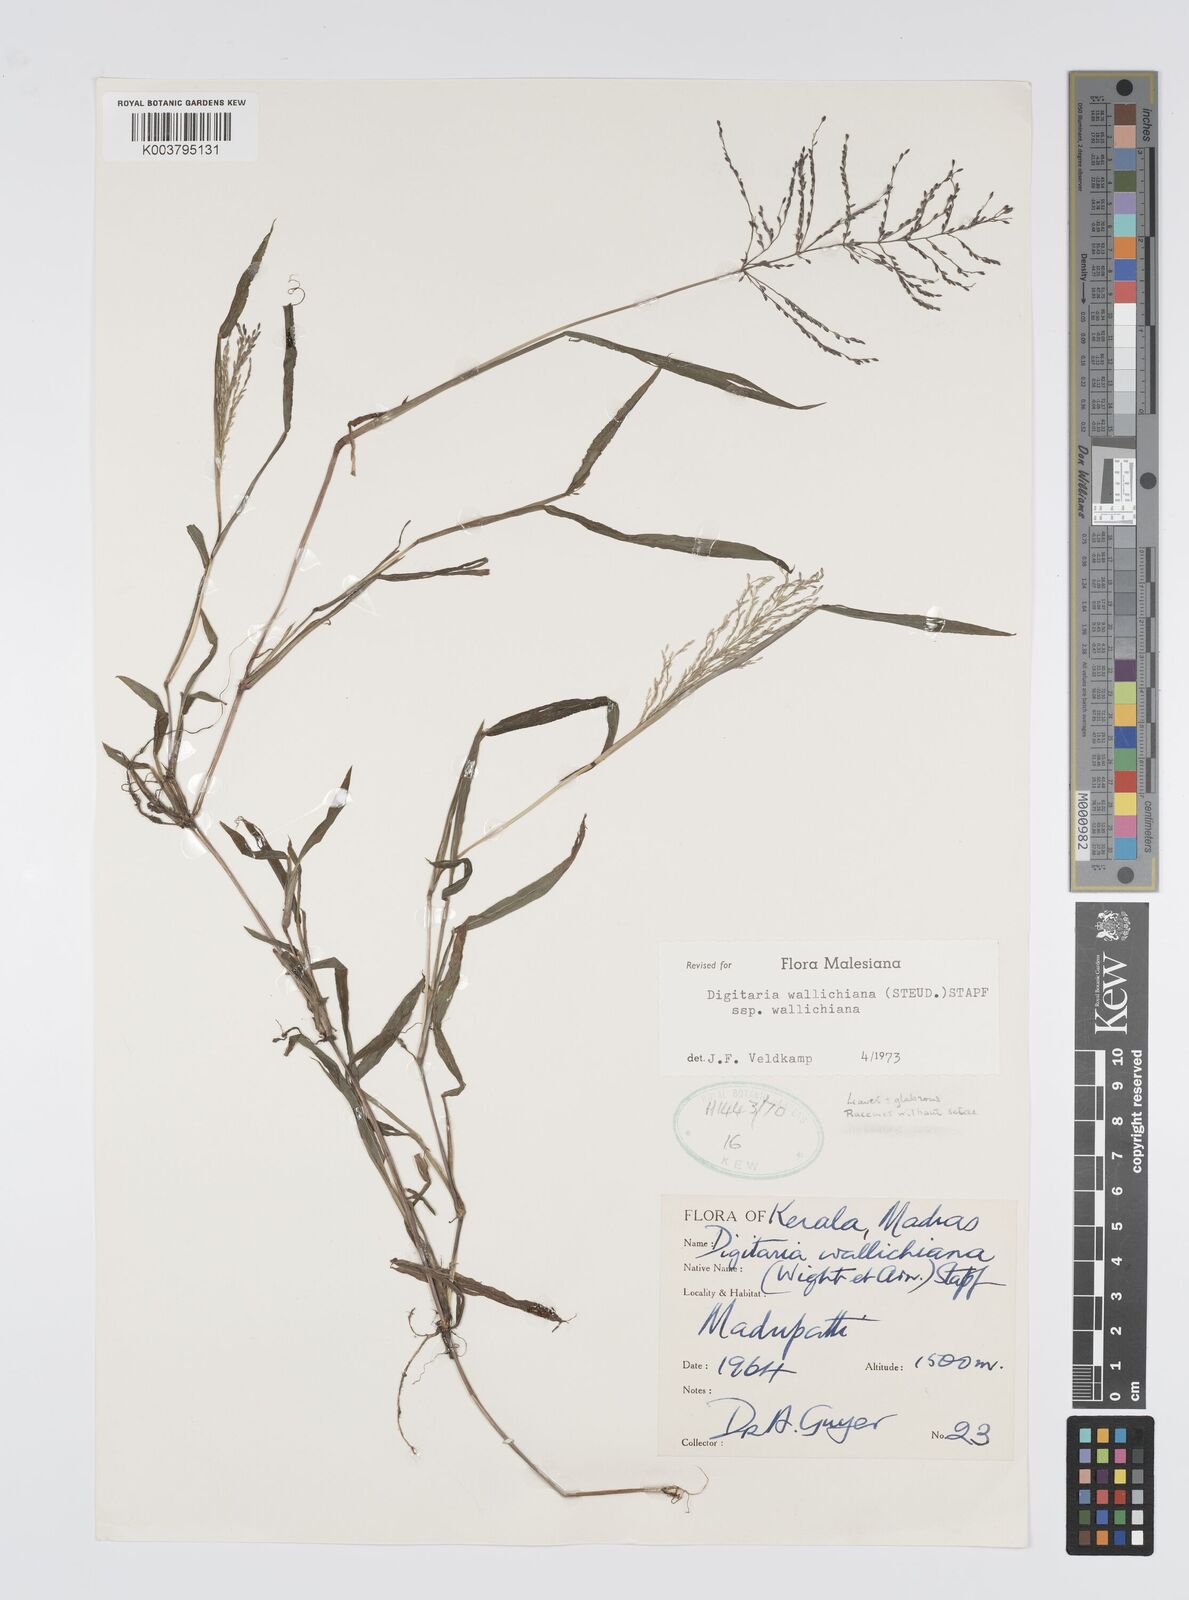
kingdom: Plantae
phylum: Tracheophyta
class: Liliopsida
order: Poales
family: Poaceae
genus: Digitaria
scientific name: Digitaria wallichiana
